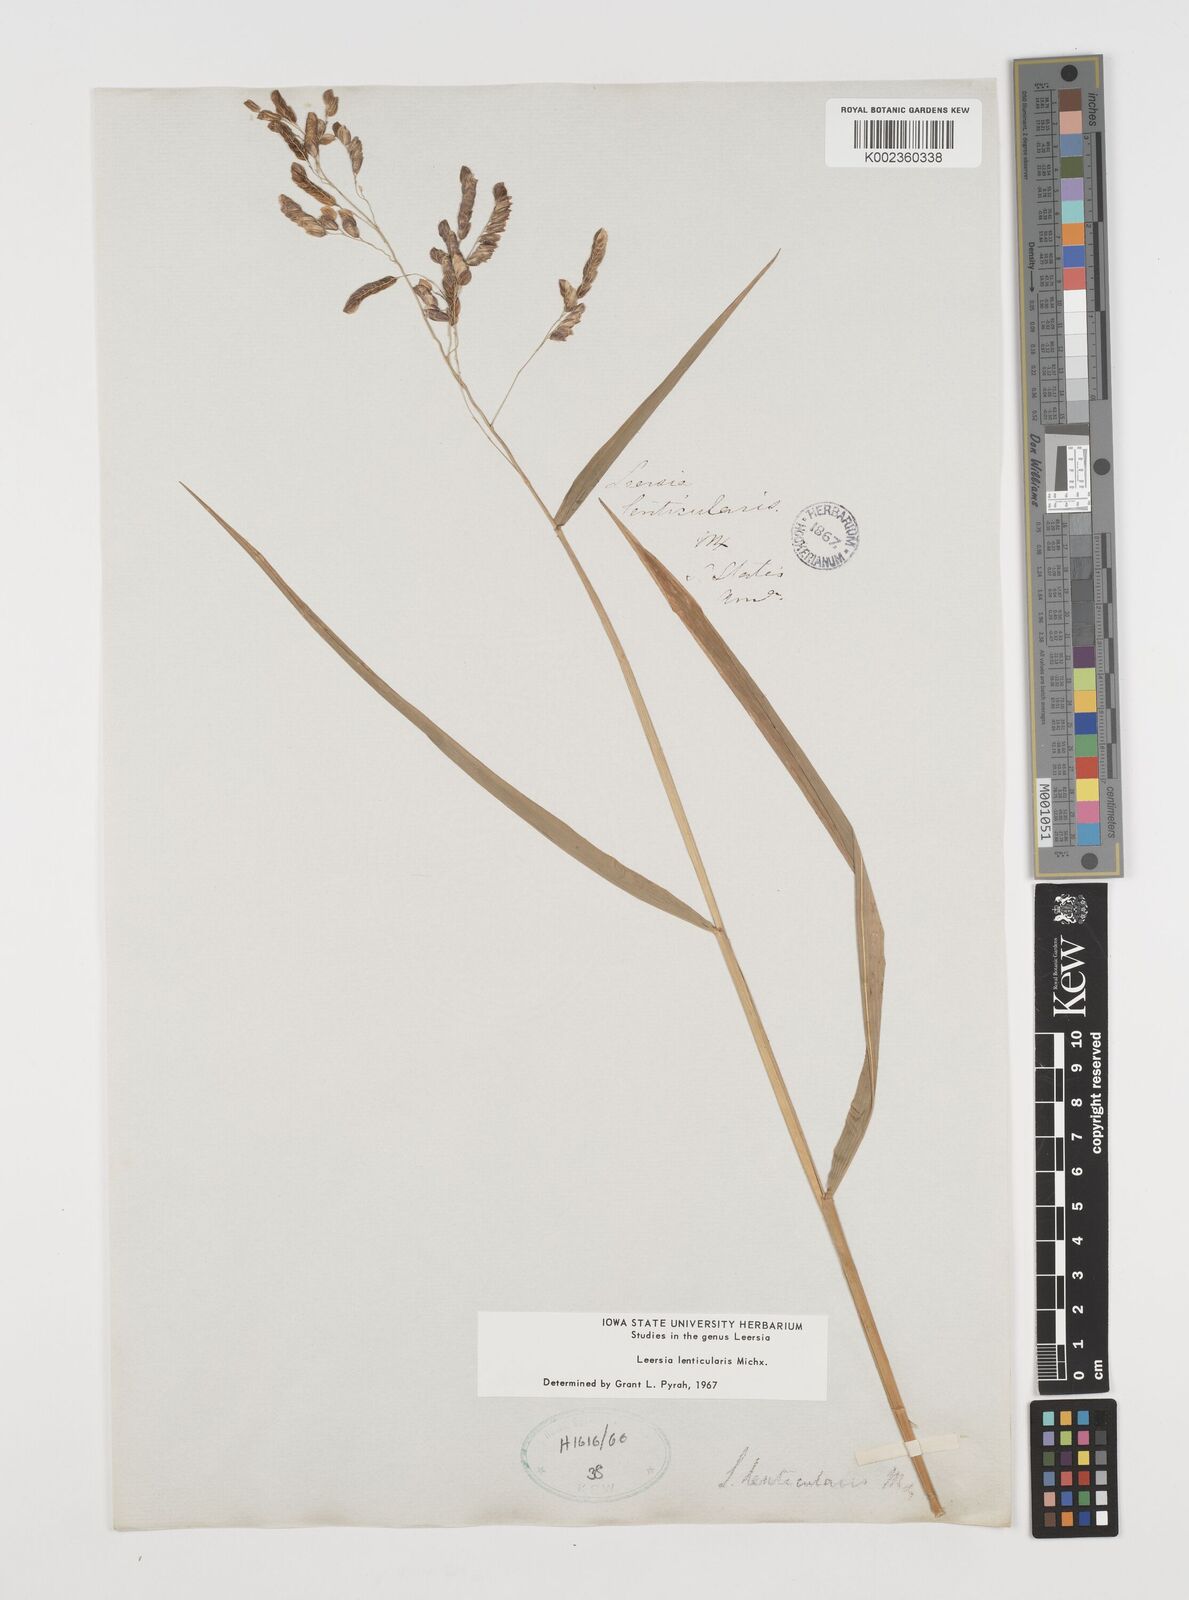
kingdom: Plantae
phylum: Tracheophyta
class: Liliopsida
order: Poales
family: Poaceae
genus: Leersia
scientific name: Leersia lenticularis
